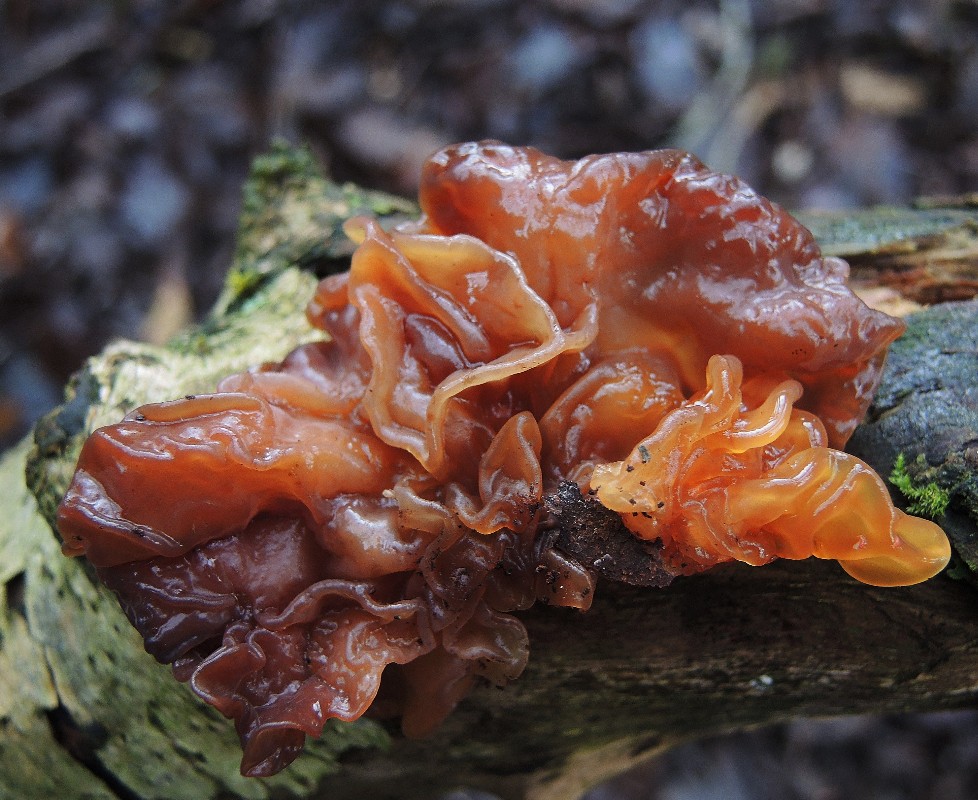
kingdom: Fungi
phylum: Basidiomycota
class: Tremellomycetes
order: Tremellales
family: Tremellaceae
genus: Phaeotremella
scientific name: Phaeotremella frondosa
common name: kæmpe-bævresvamp
